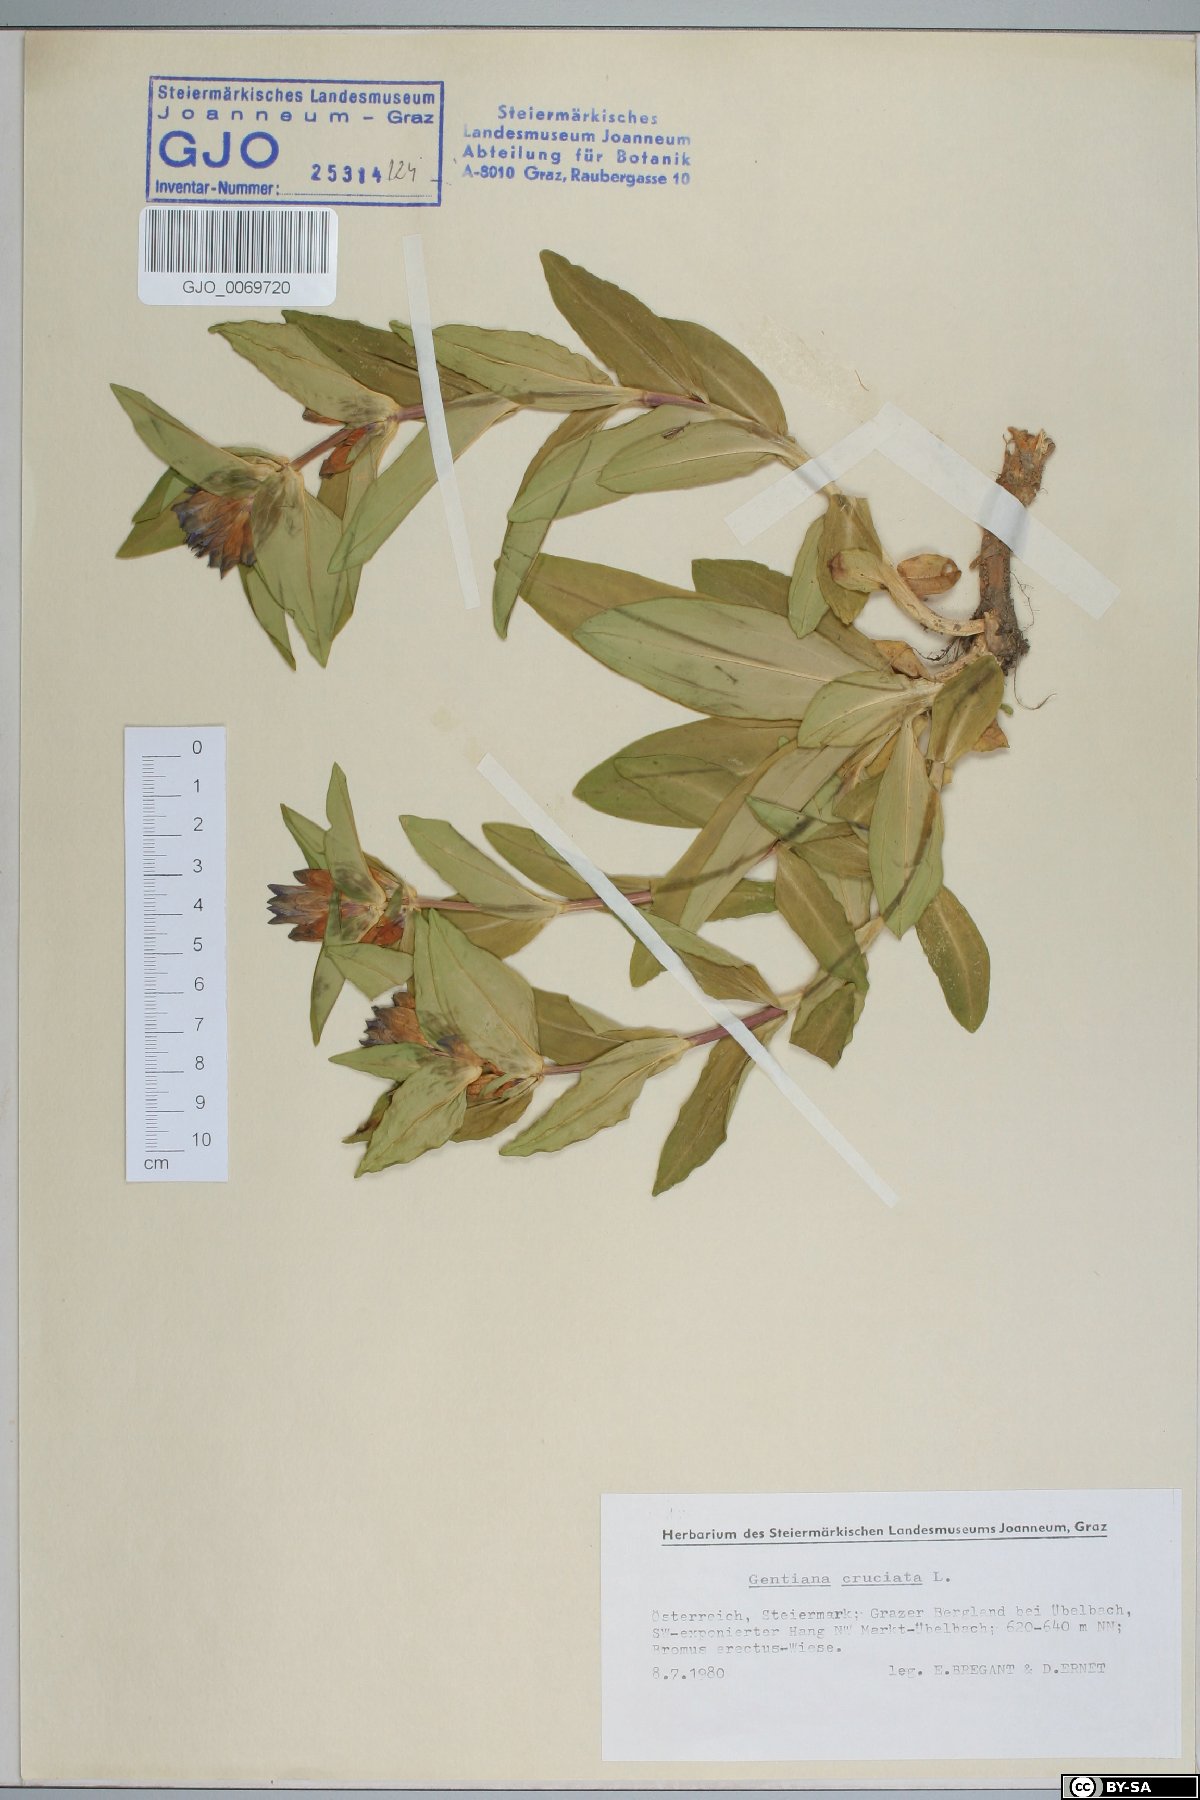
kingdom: Plantae
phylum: Tracheophyta
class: Magnoliopsida
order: Gentianales
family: Gentianaceae
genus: Gentiana
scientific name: Gentiana cruciata
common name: Cross gentian
